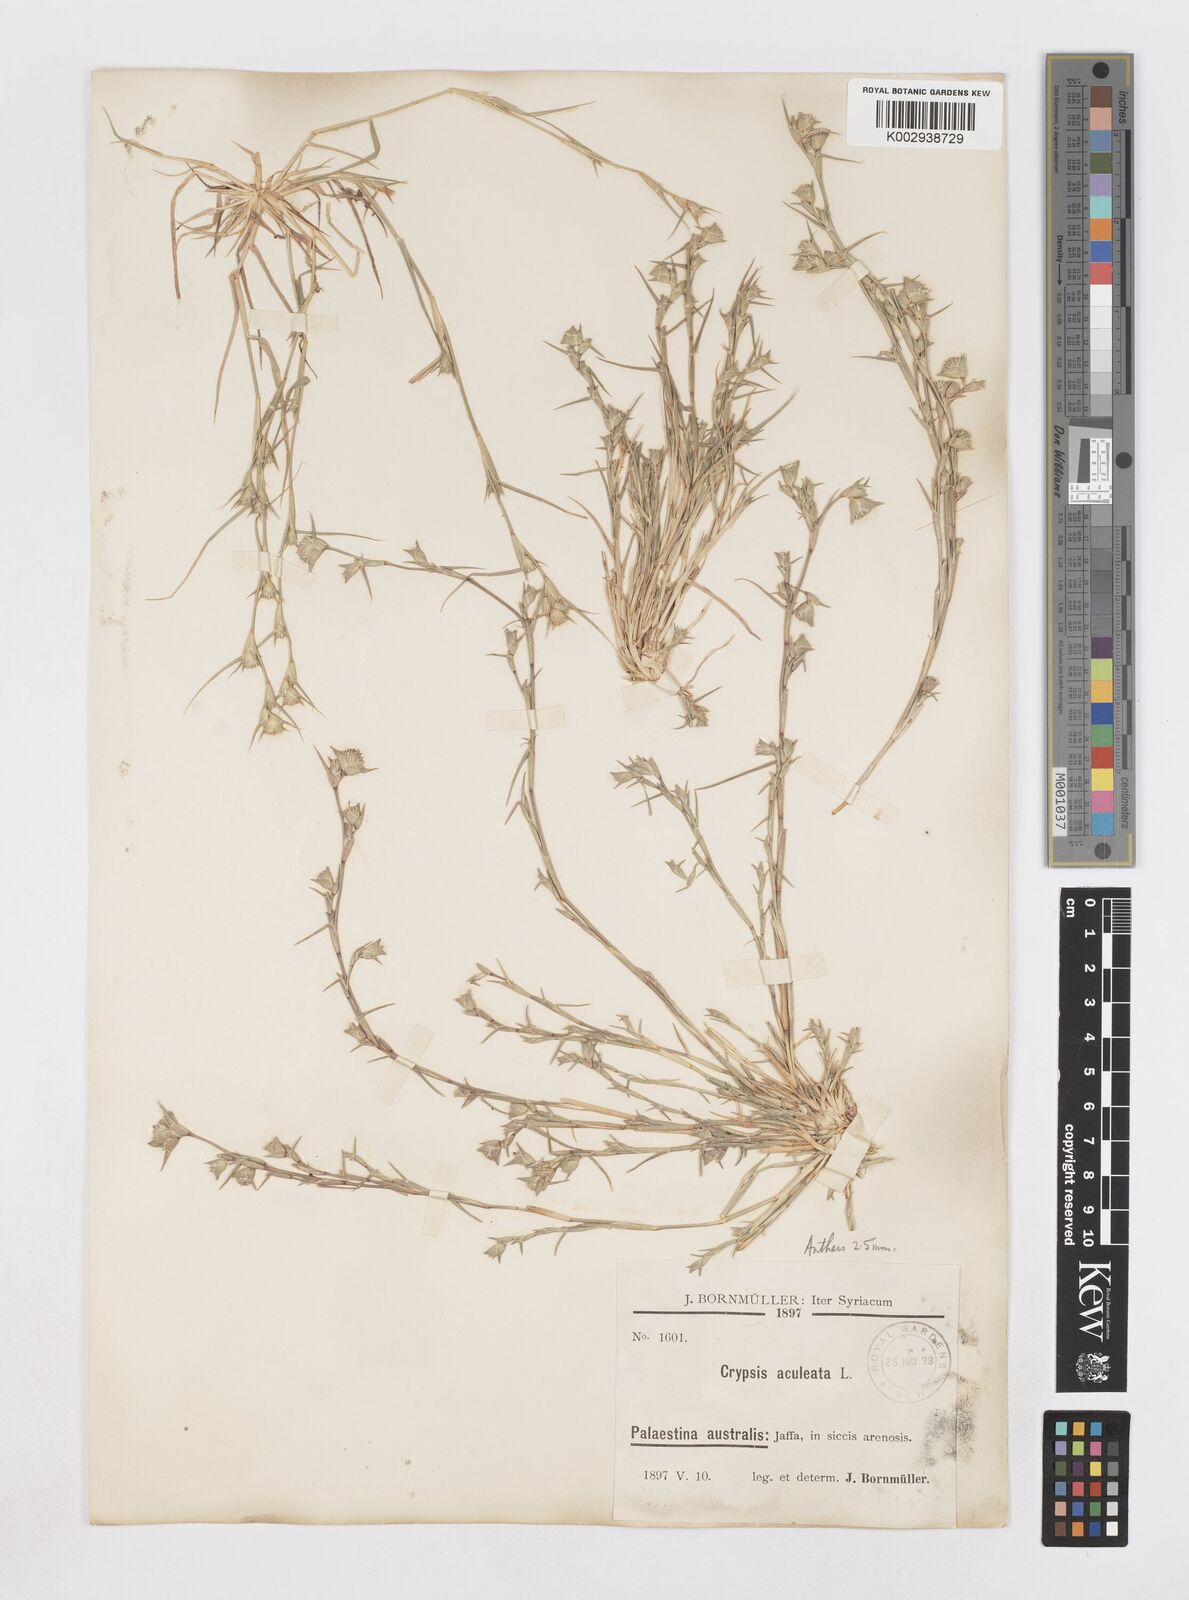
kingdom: Plantae
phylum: Tracheophyta
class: Liliopsida
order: Poales
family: Poaceae
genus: Sporobolus
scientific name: Sporobolus factorovskyi
